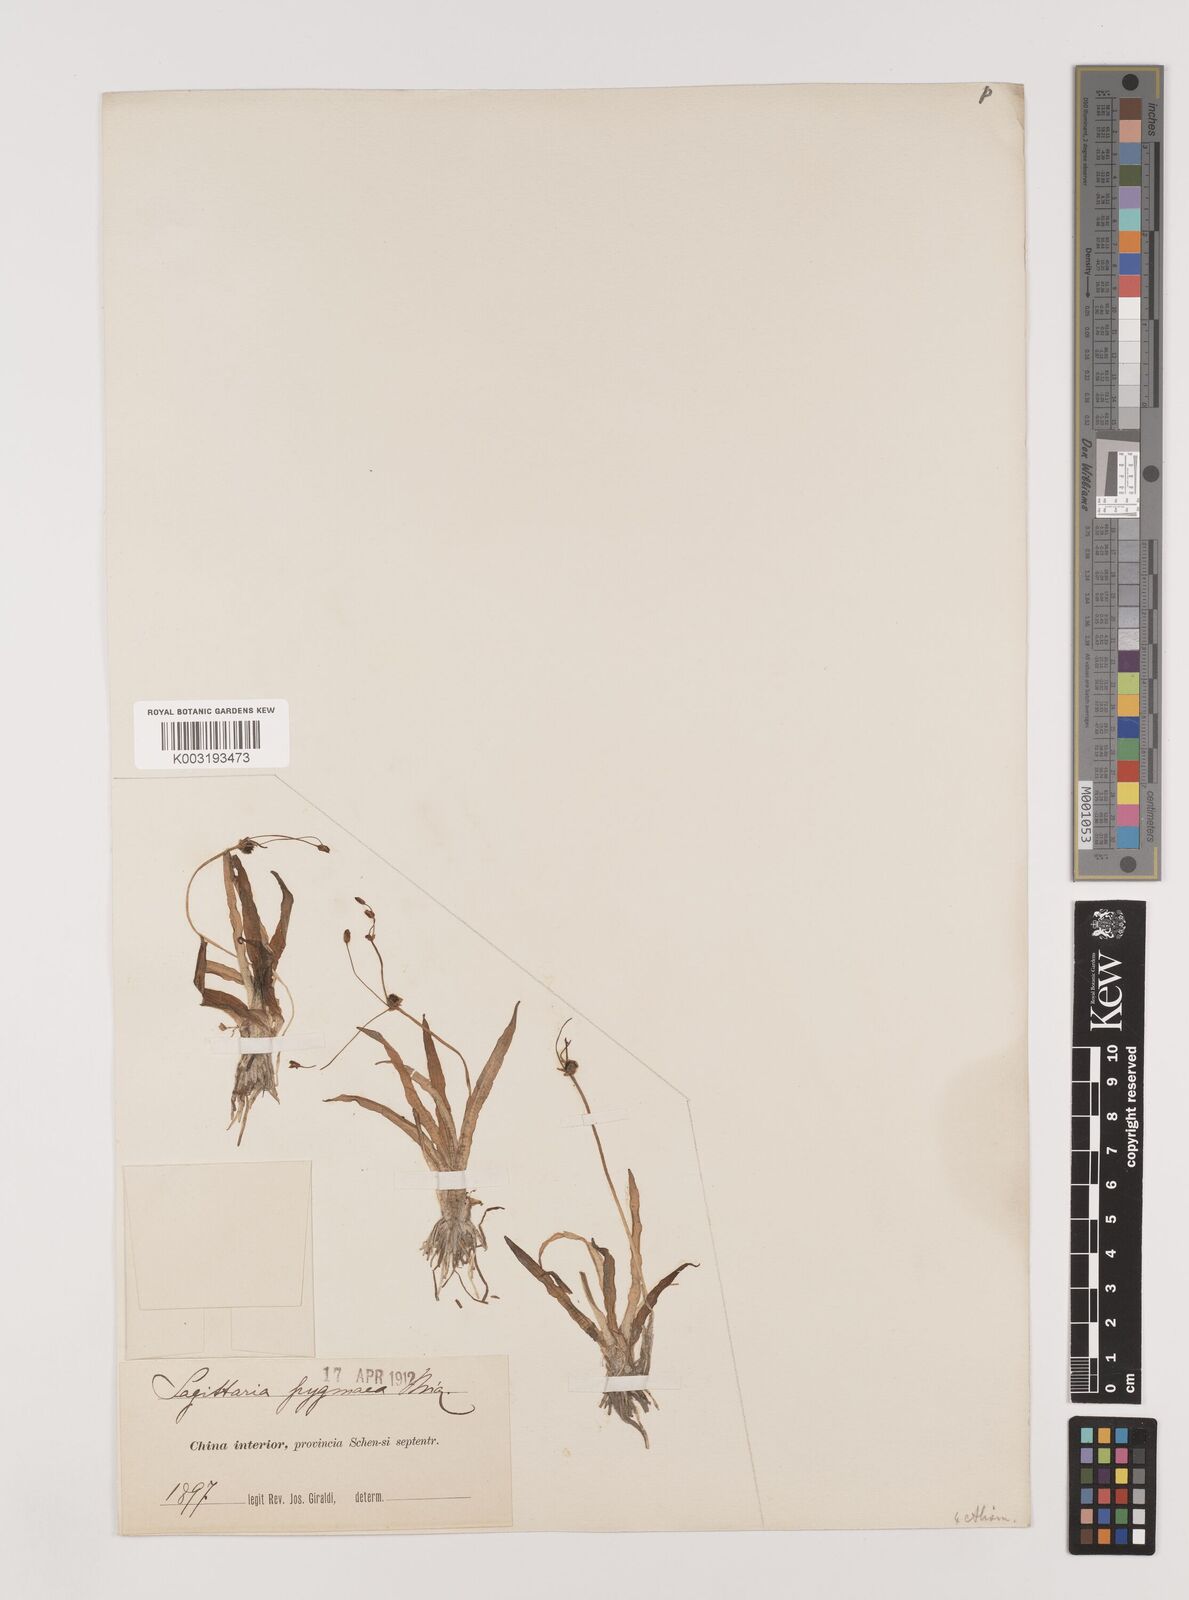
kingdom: Plantae
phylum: Tracheophyta
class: Liliopsida
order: Alismatales
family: Alismataceae
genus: Sagittaria
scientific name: Sagittaria pygmaea
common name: Pygmy arrowhead
